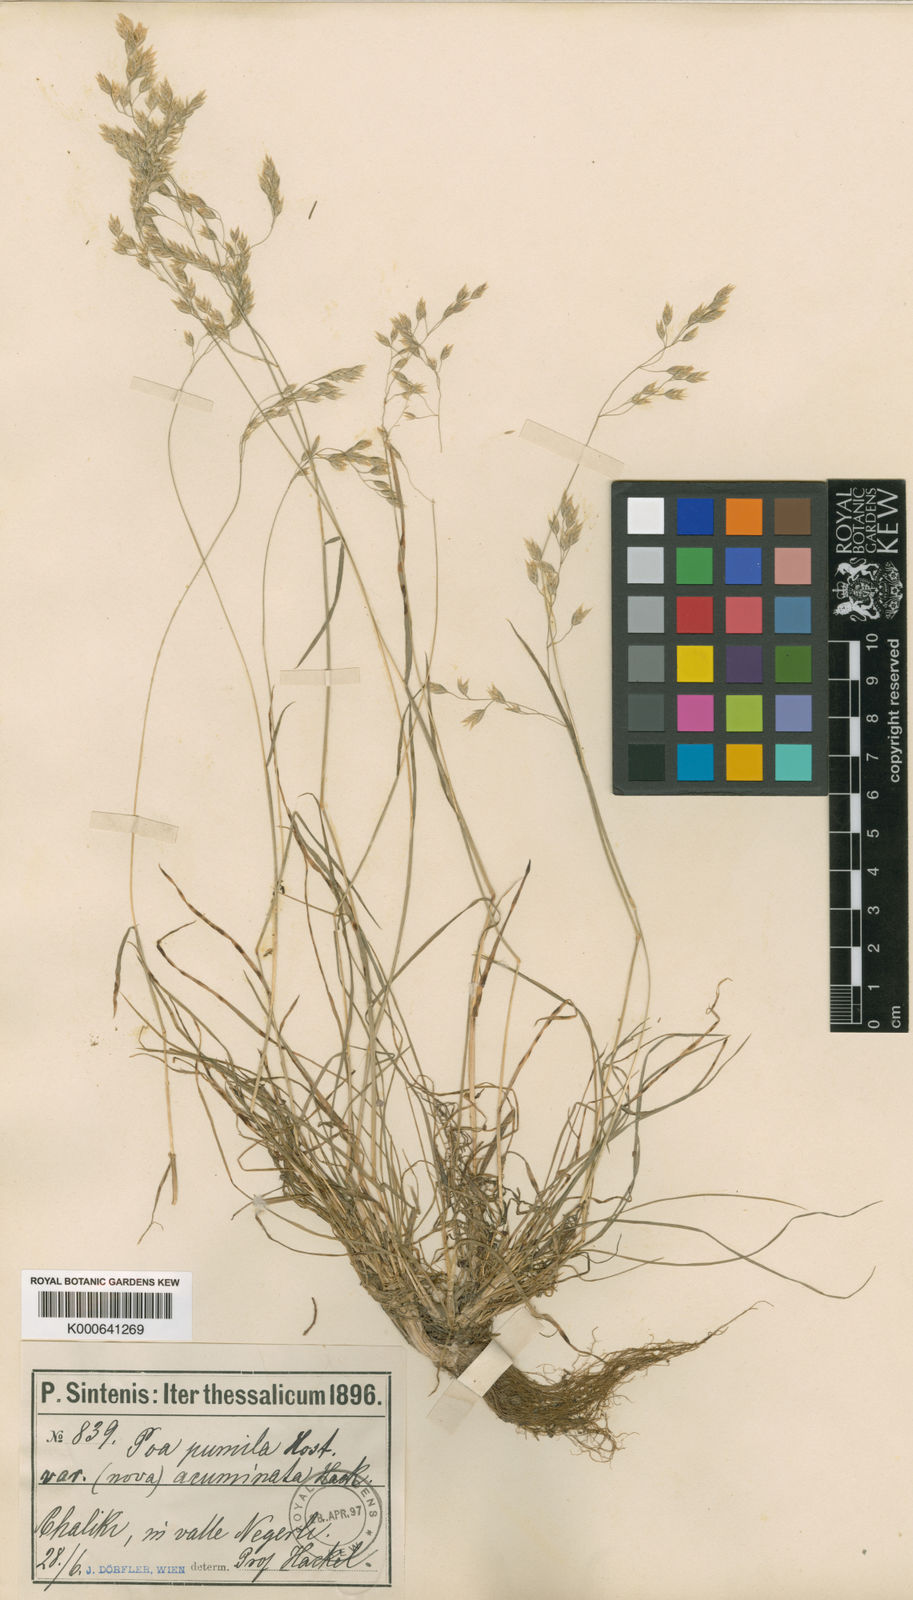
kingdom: Plantae
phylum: Tracheophyta
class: Liliopsida
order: Poales
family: Poaceae
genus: Briza
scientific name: Briza media
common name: Quaking grass
